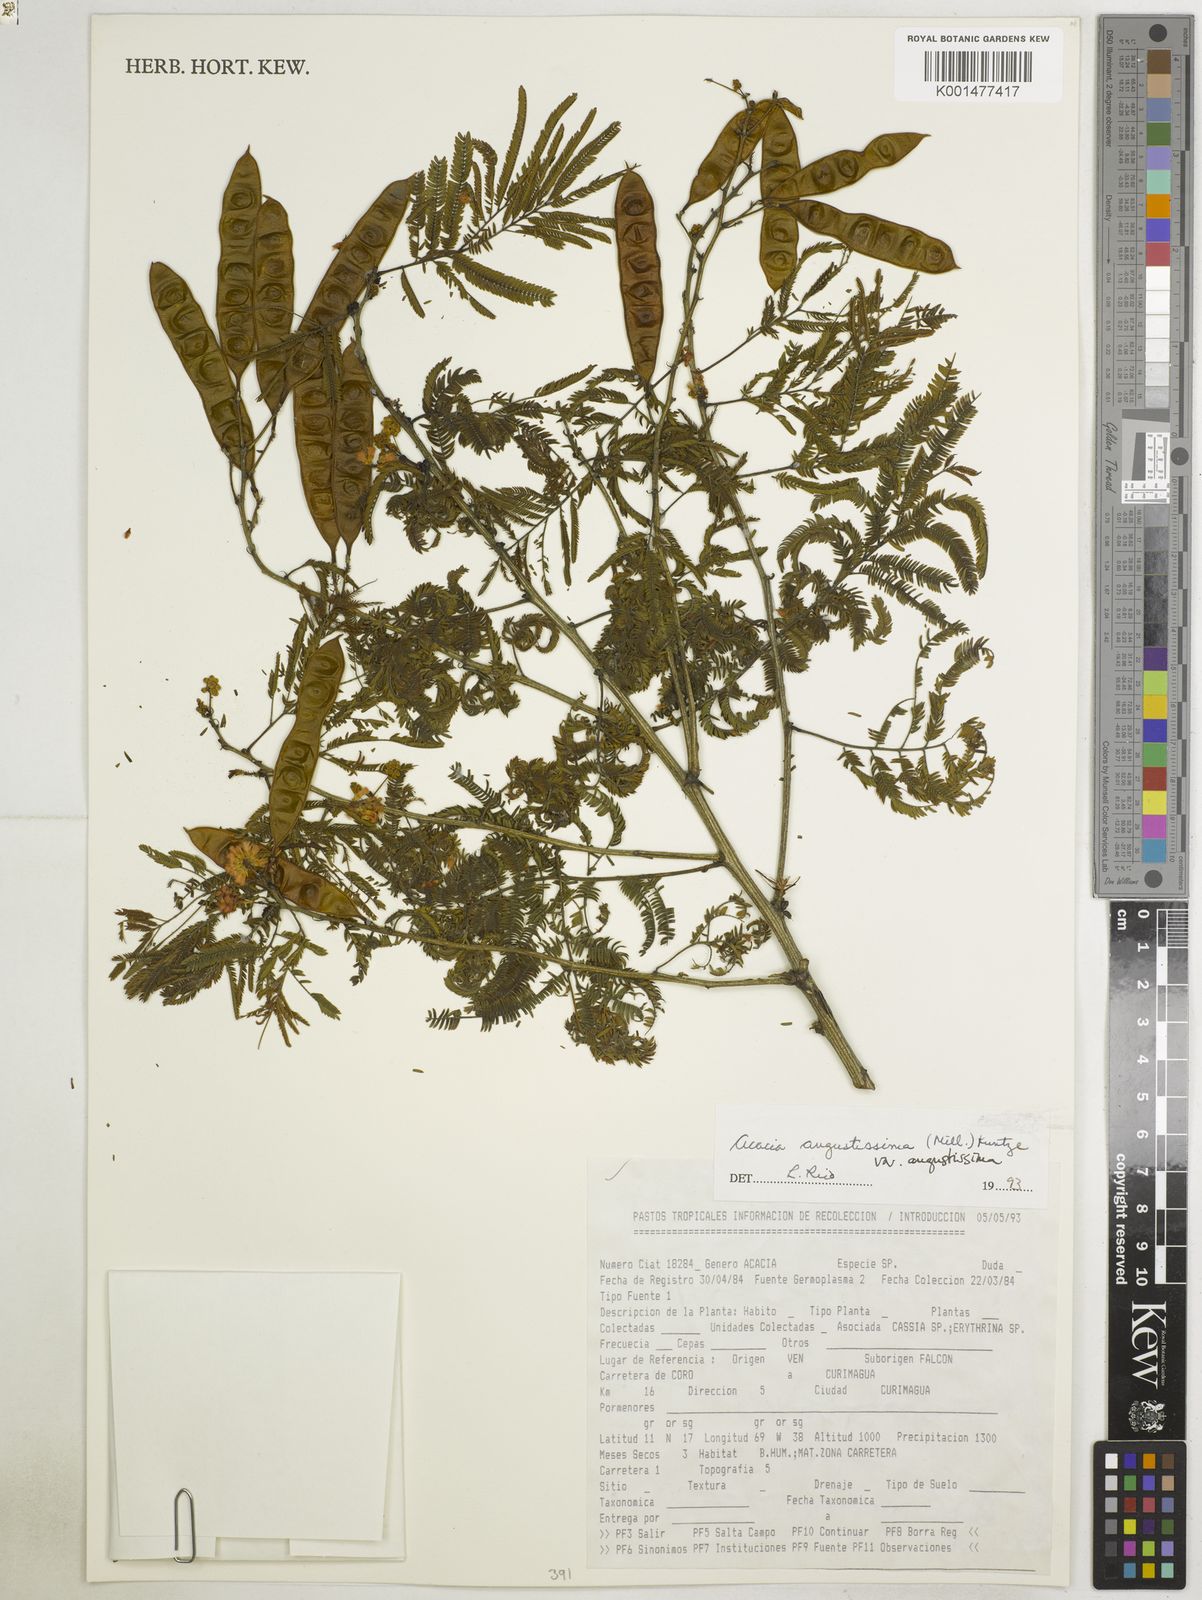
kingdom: Plantae
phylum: Tracheophyta
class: Magnoliopsida
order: Fabales
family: Fabaceae
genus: Acaciella
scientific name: Acaciella angustissima
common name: Prairie acacia
